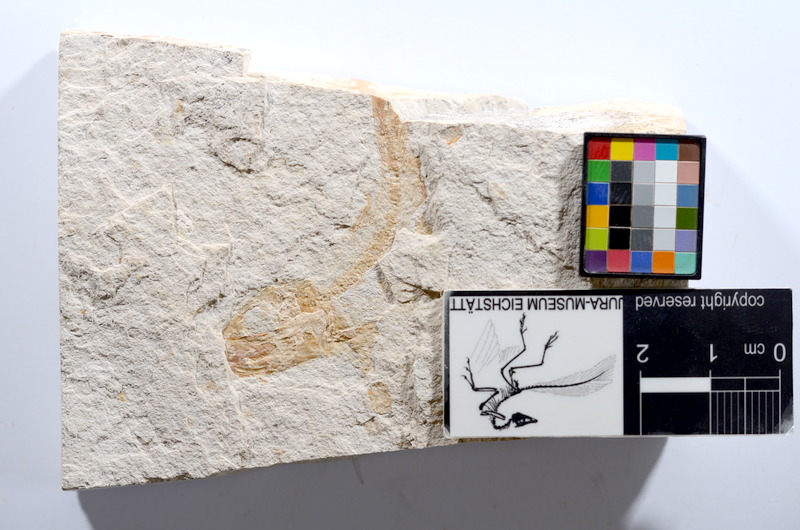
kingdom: Animalia
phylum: Chordata
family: Ascalaboidae
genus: Tharsis
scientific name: Tharsis dubius
